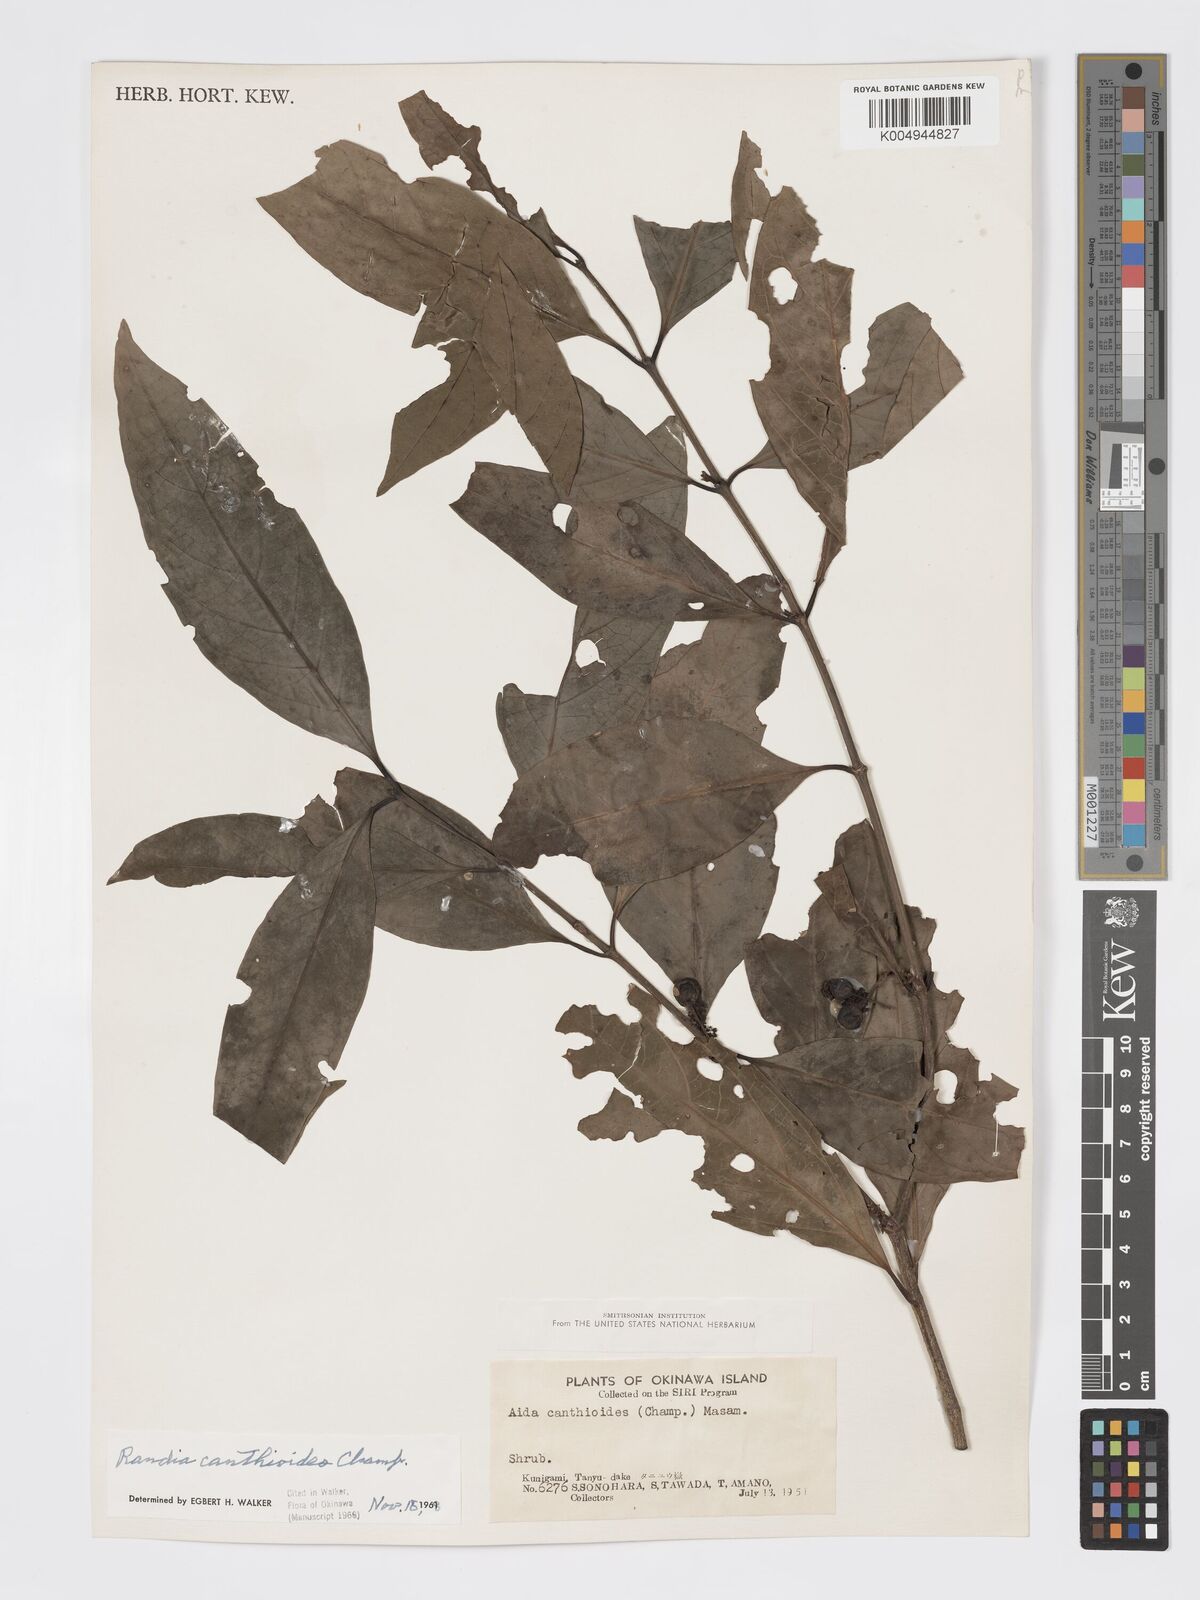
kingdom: Plantae
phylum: Tracheophyta
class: Magnoliopsida
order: Gentianales
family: Rubiaceae
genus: Aidia
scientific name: Aidia canthioides
